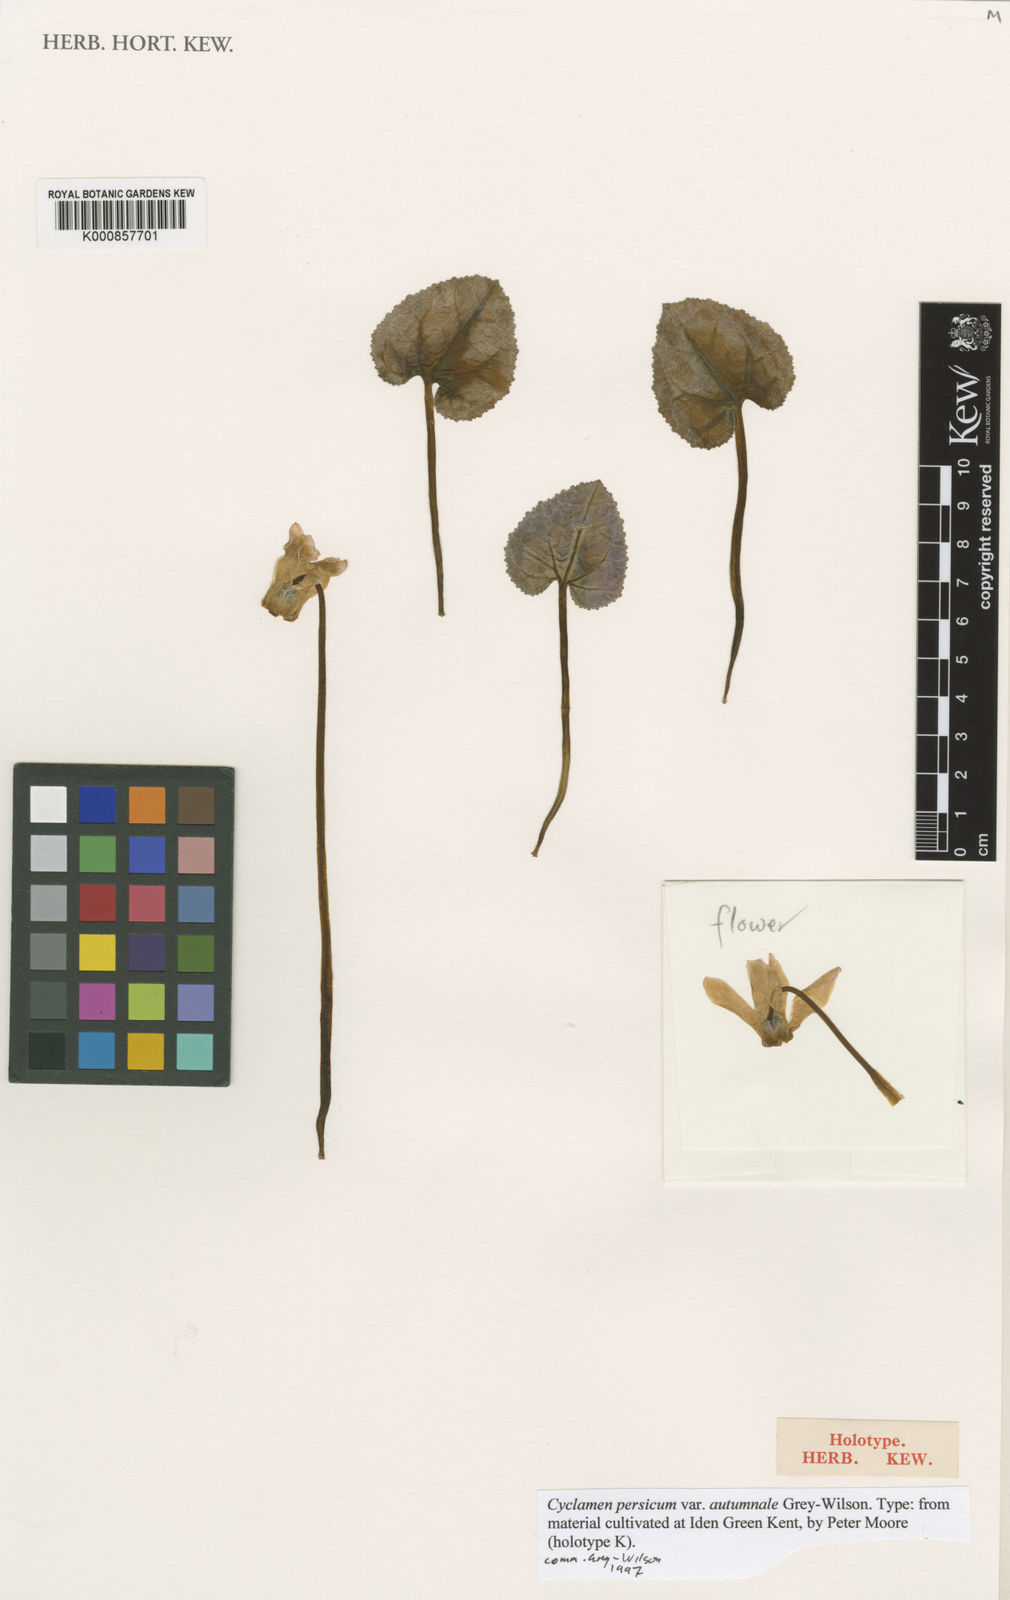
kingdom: Plantae
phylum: Tracheophyta
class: Magnoliopsida
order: Ericales
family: Primulaceae
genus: Cyclamen
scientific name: Cyclamen persicum
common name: Florist's cyclamen
